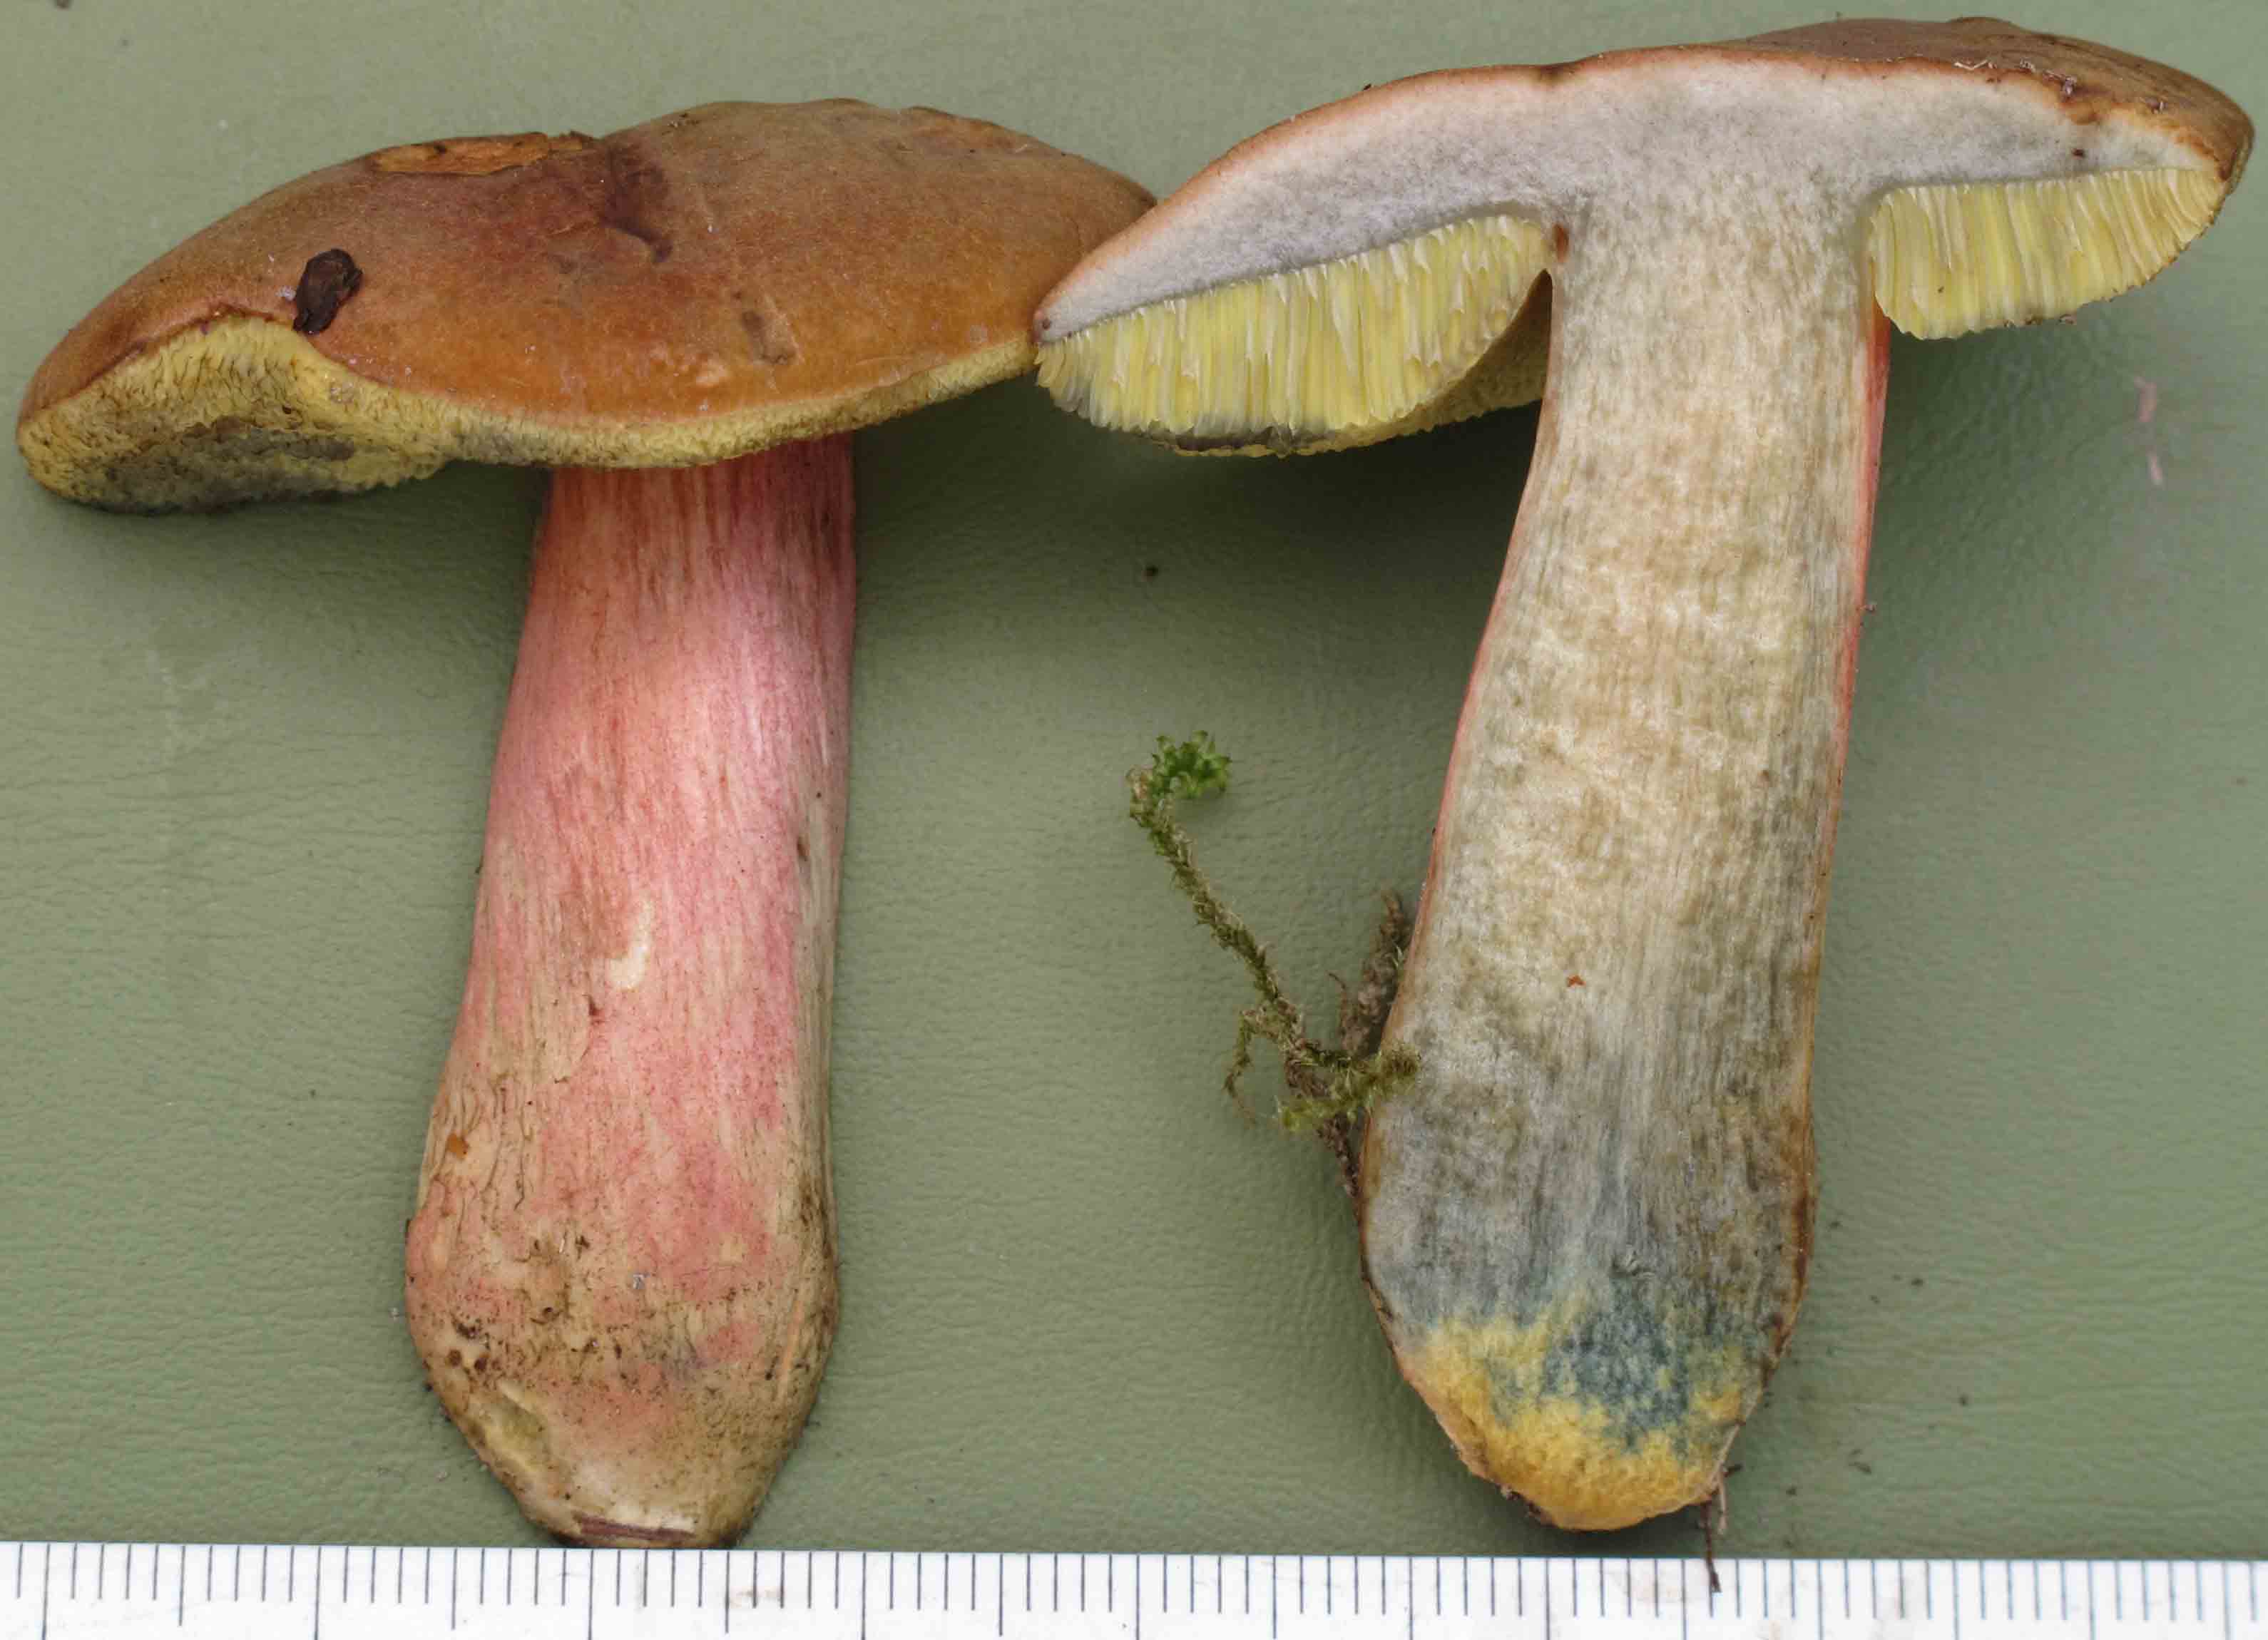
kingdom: Fungi
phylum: Basidiomycota
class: Agaricomycetes
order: Boletales
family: Boletaceae
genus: Hortiboletus
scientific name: Hortiboletus bubalinus
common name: aurora-rørhat
